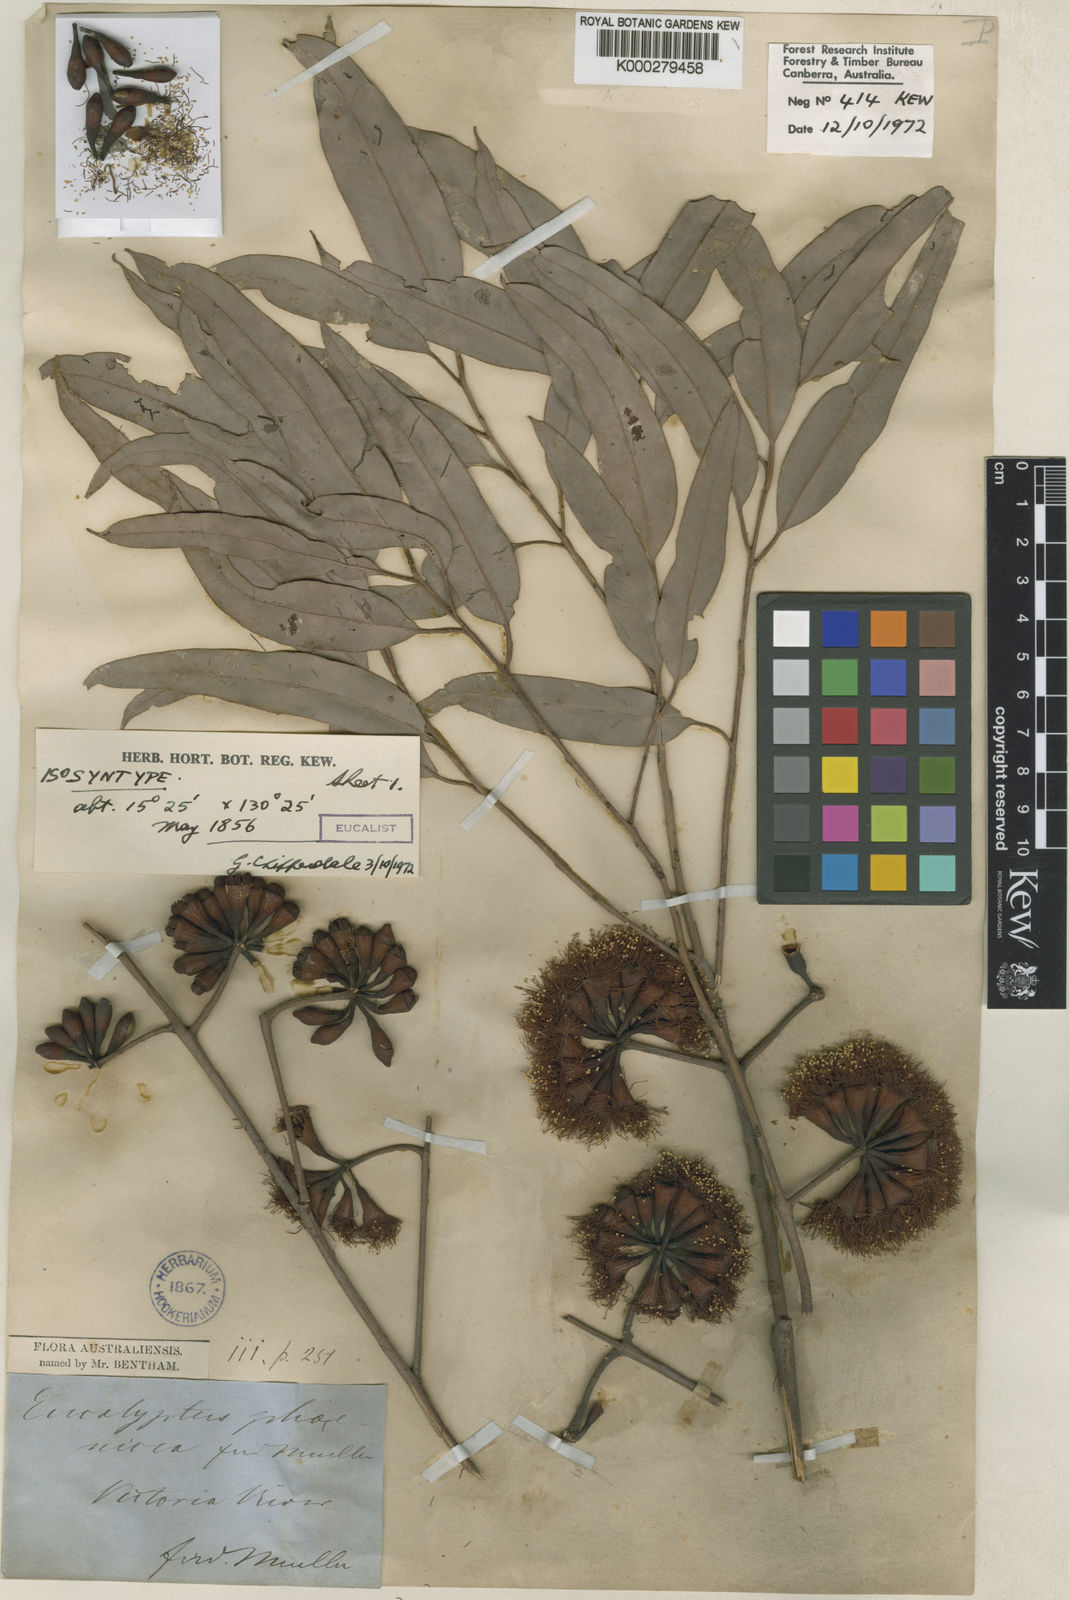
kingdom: Plantae
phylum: Tracheophyta
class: Magnoliopsida
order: Myrtales
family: Myrtaceae
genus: Eucalyptus
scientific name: Eucalyptus phoenicea
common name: Gnaingar
